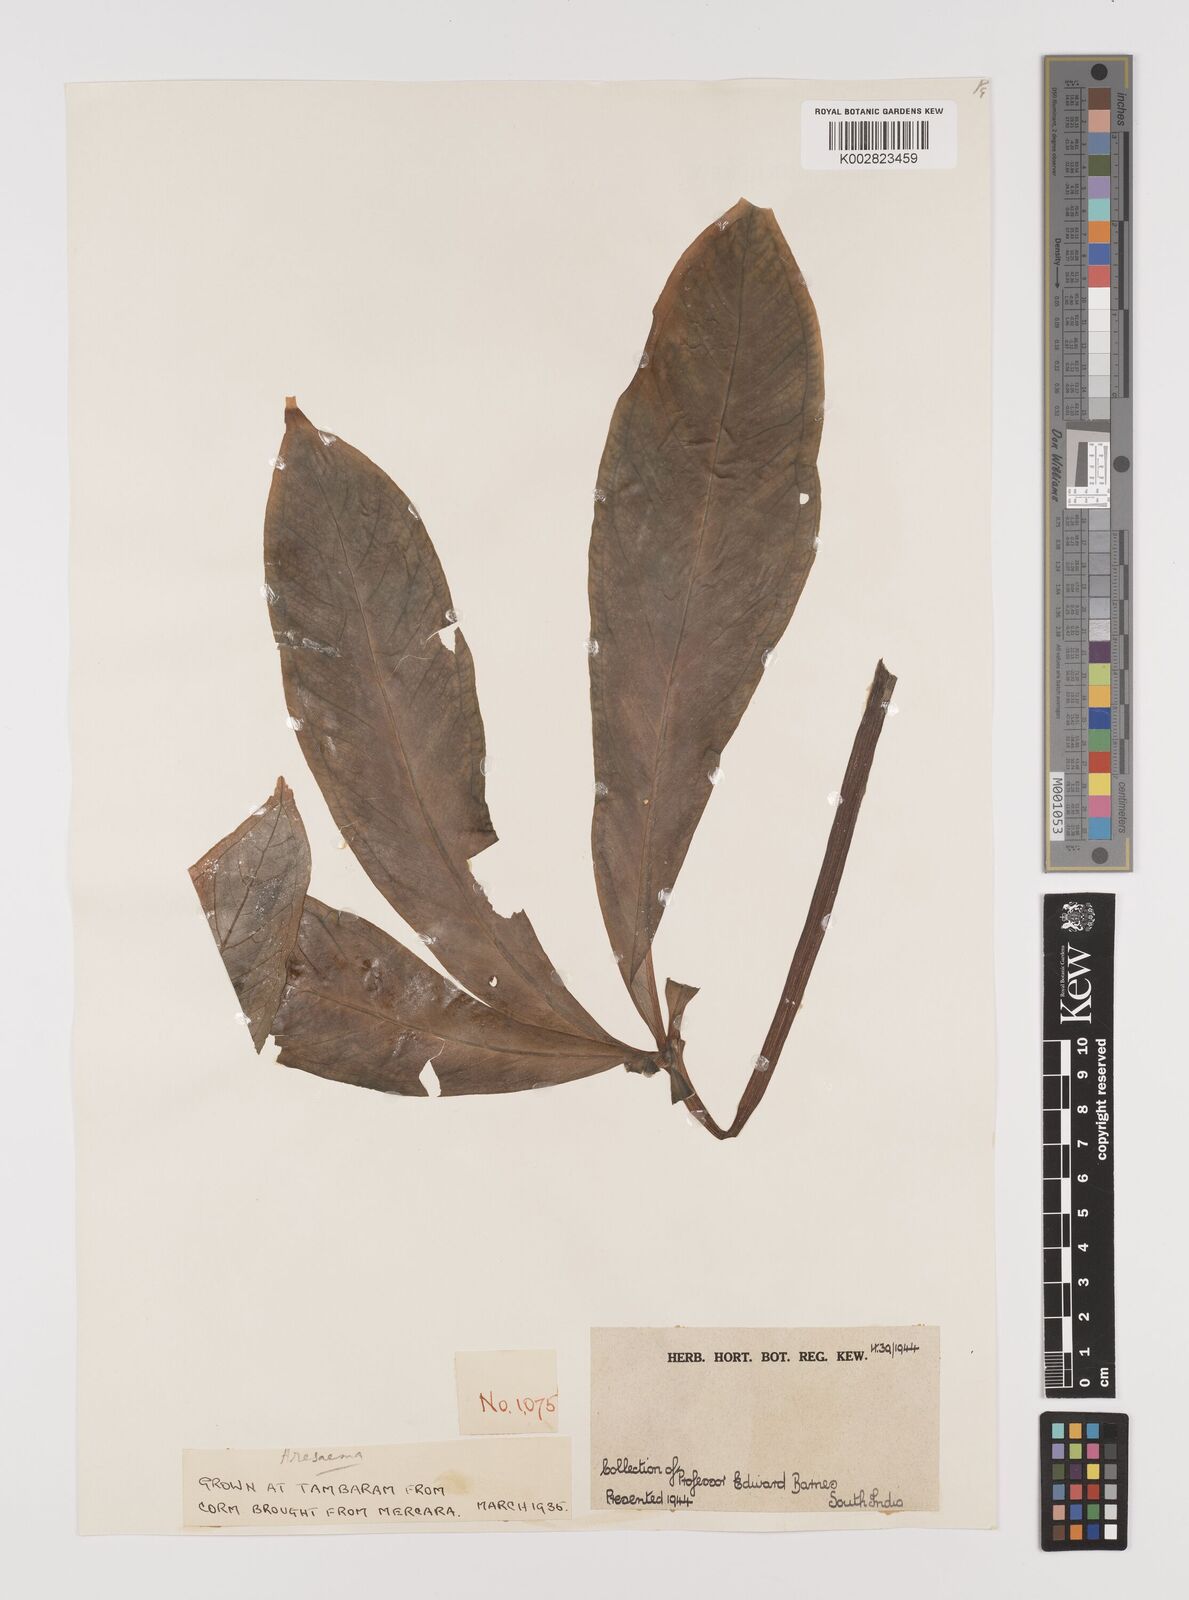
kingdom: Plantae
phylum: Tracheophyta
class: Liliopsida
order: Alismatales
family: Araceae
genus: Arisaema
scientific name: Arisaema
